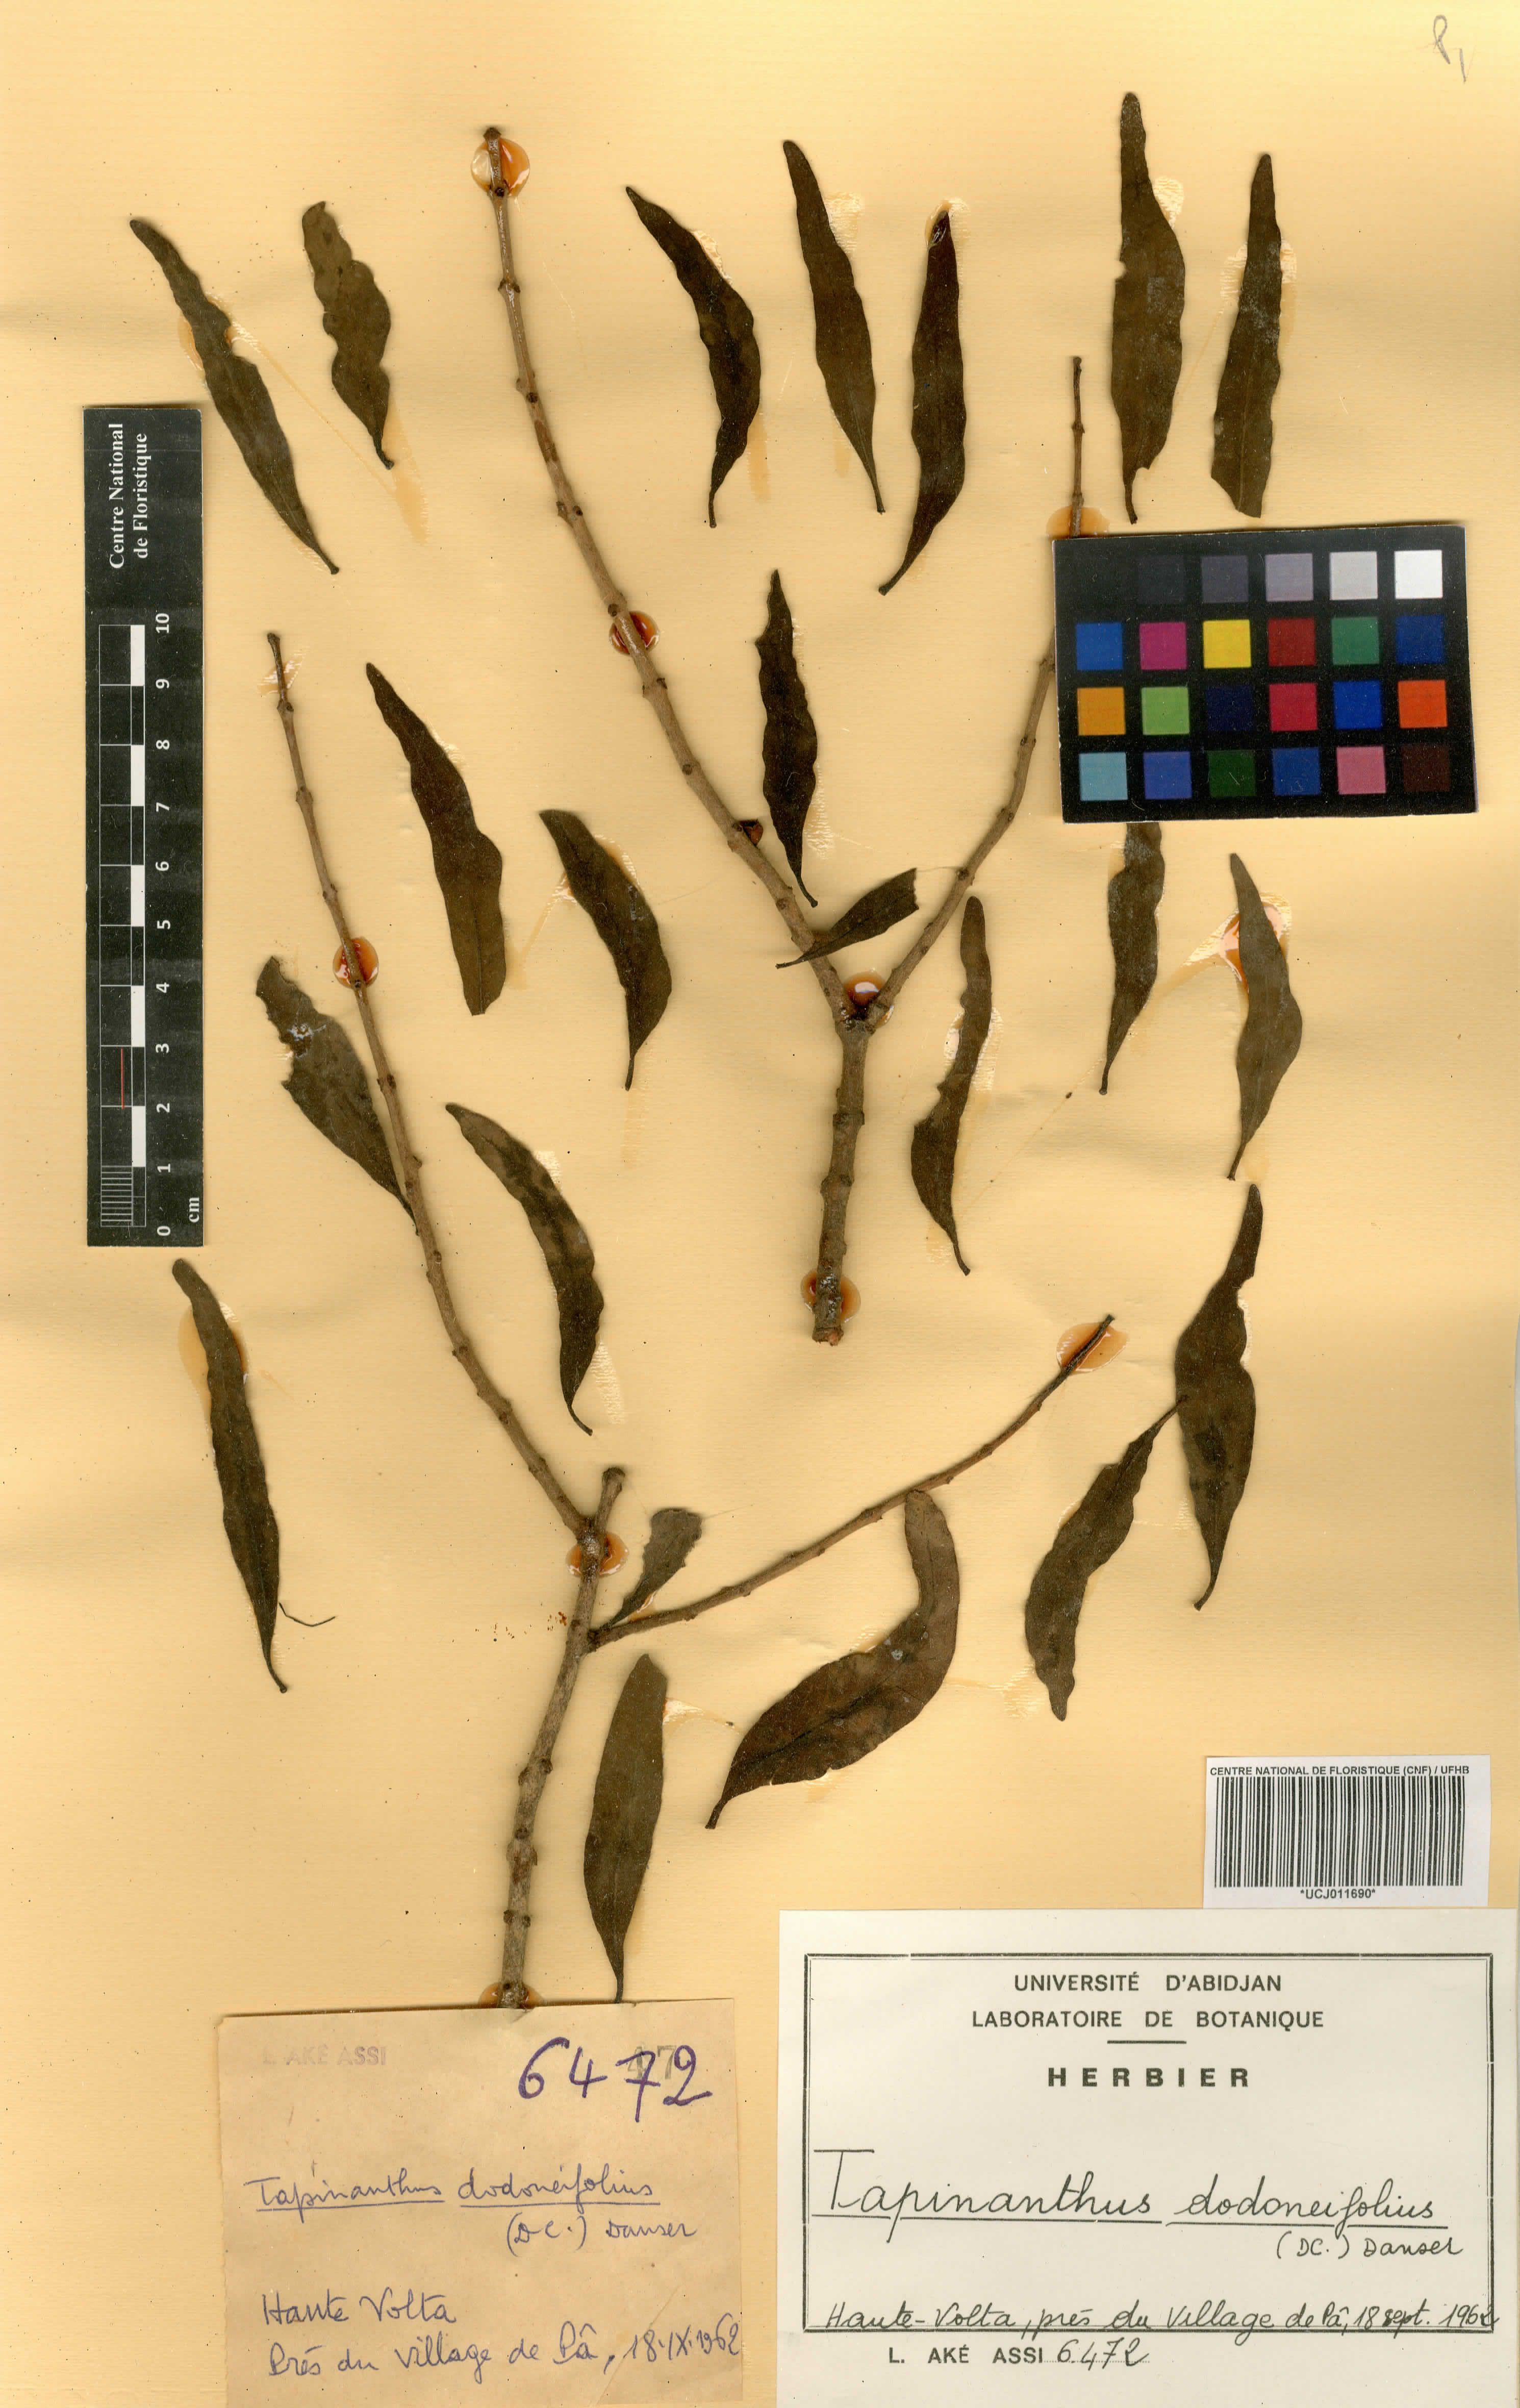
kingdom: Plantae
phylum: Tracheophyta
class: Magnoliopsida
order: Santalales
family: Loranthaceae
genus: Agelanthus
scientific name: Agelanthus dodoneifolius
